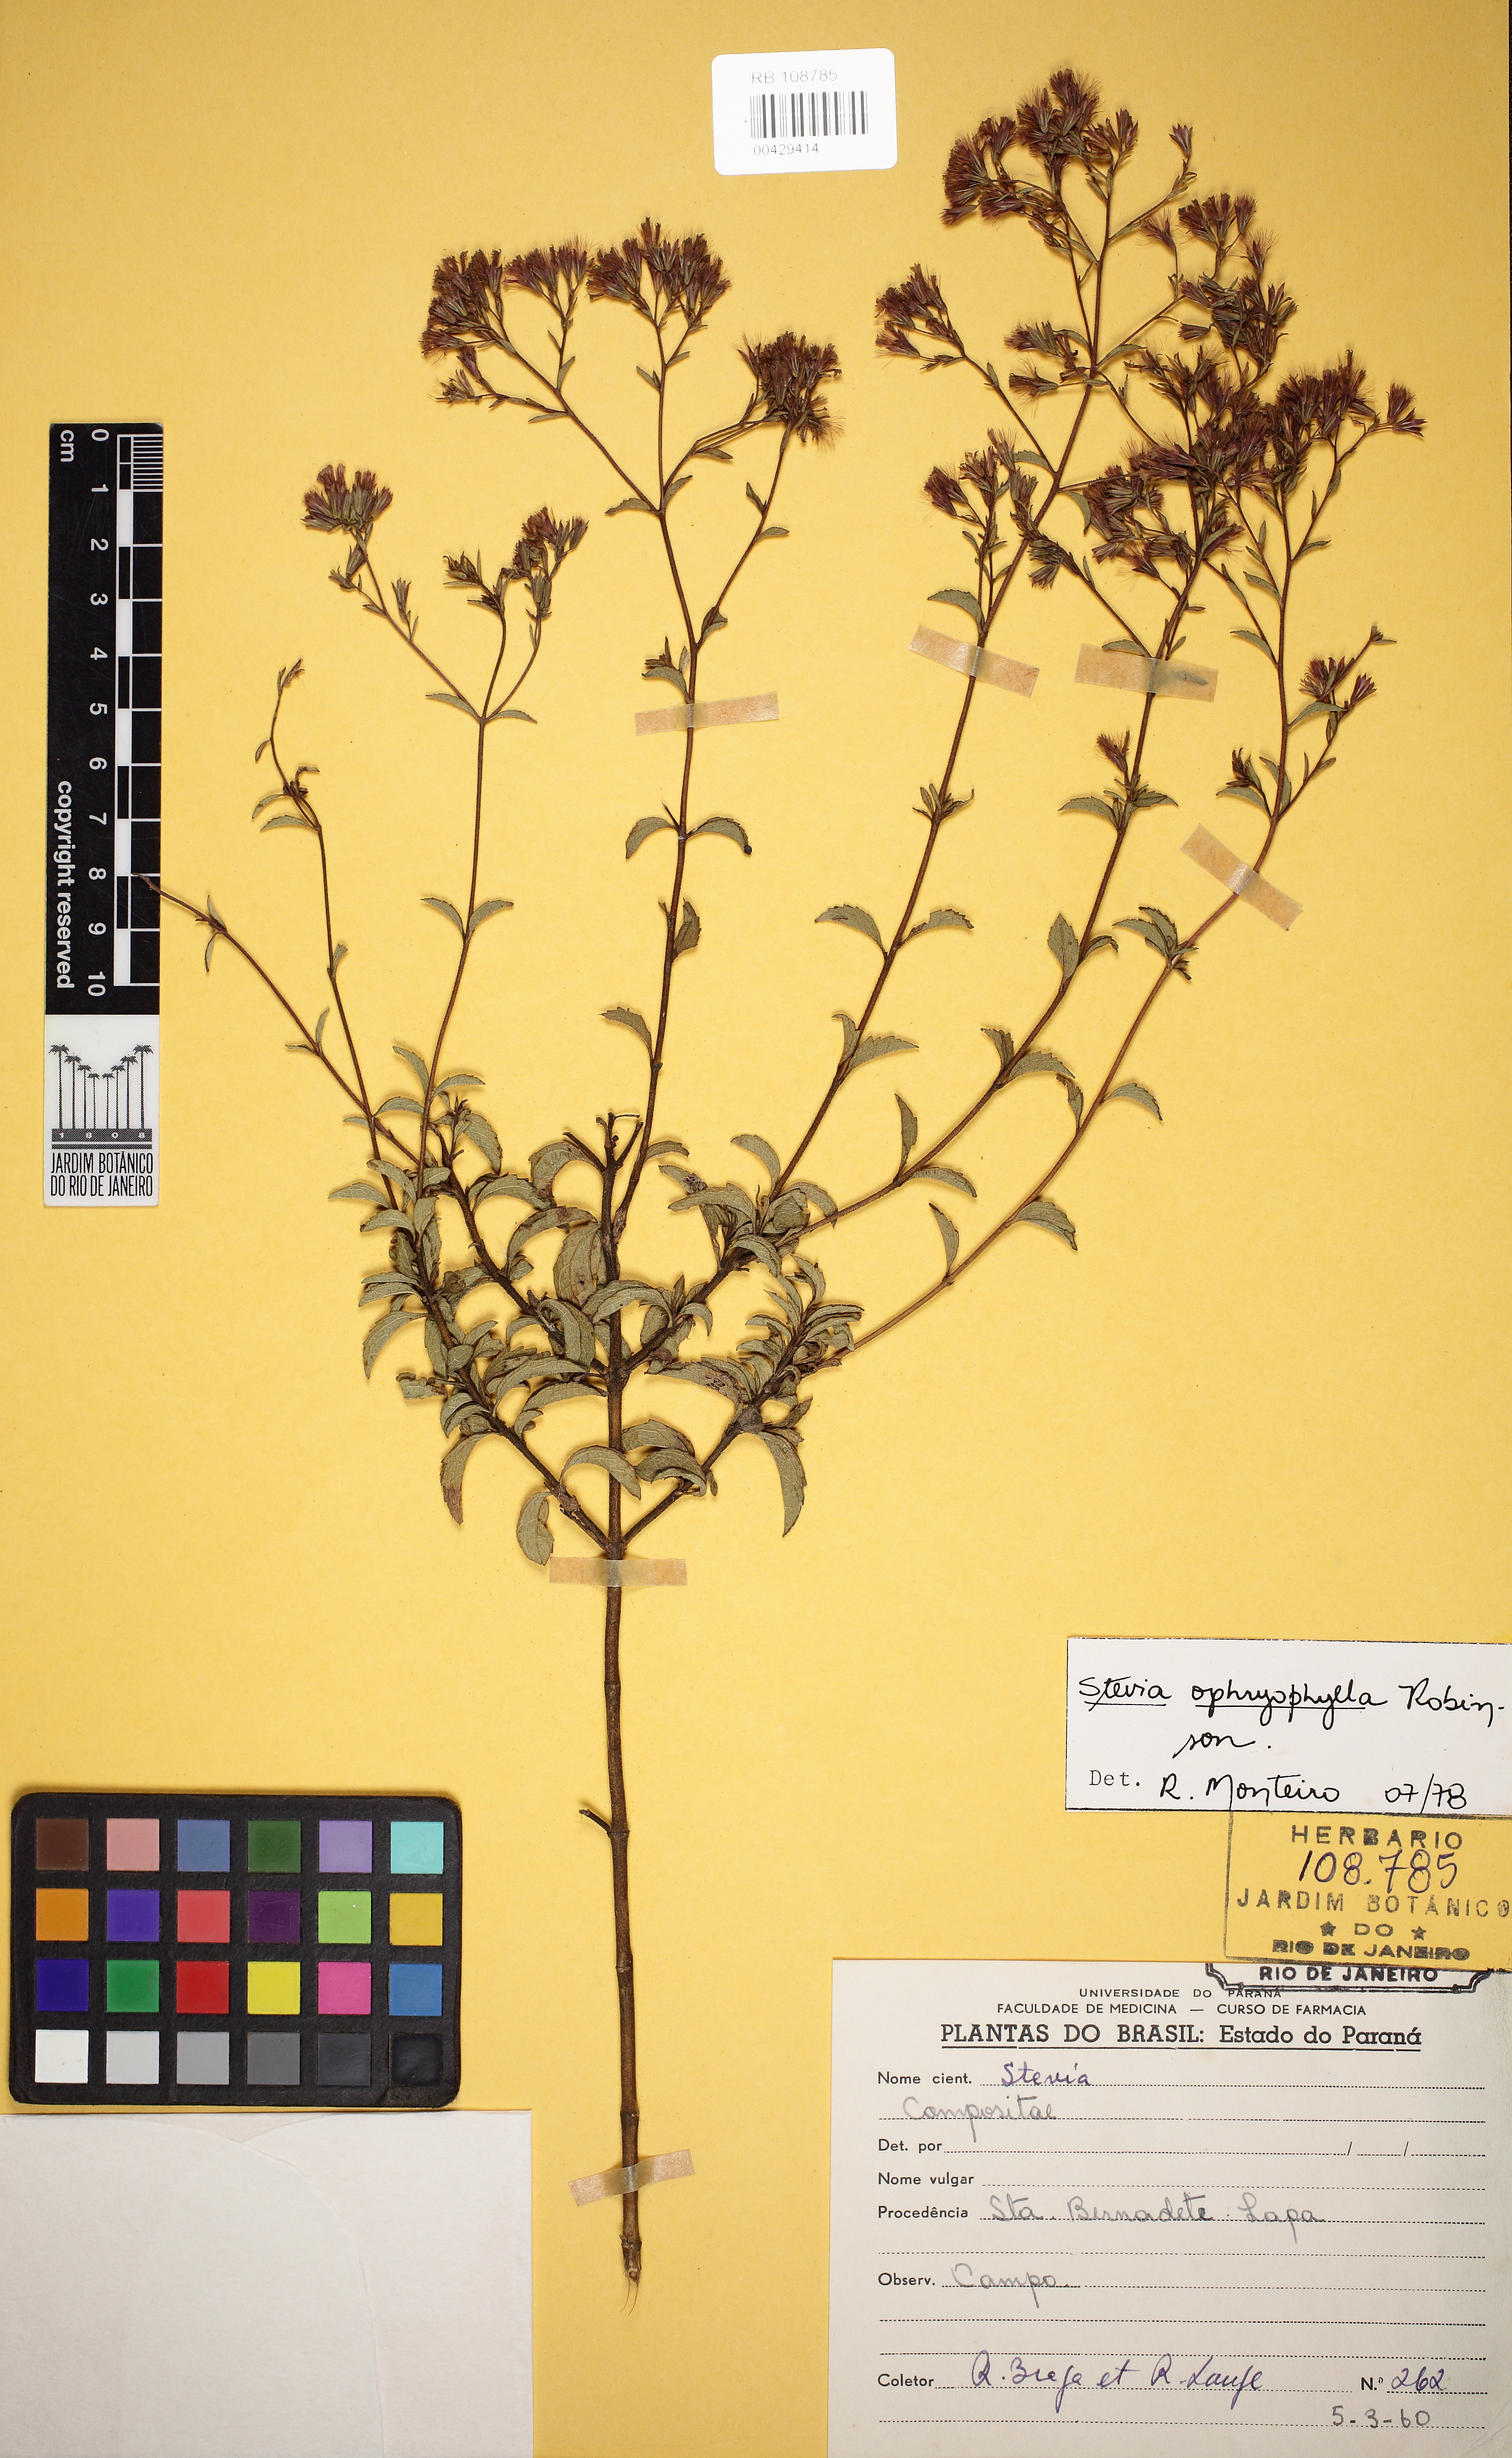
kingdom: Plantae
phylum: Tracheophyta
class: Magnoliopsida
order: Asterales
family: Asteraceae
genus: Stevia
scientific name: Stevia ophryophylla
